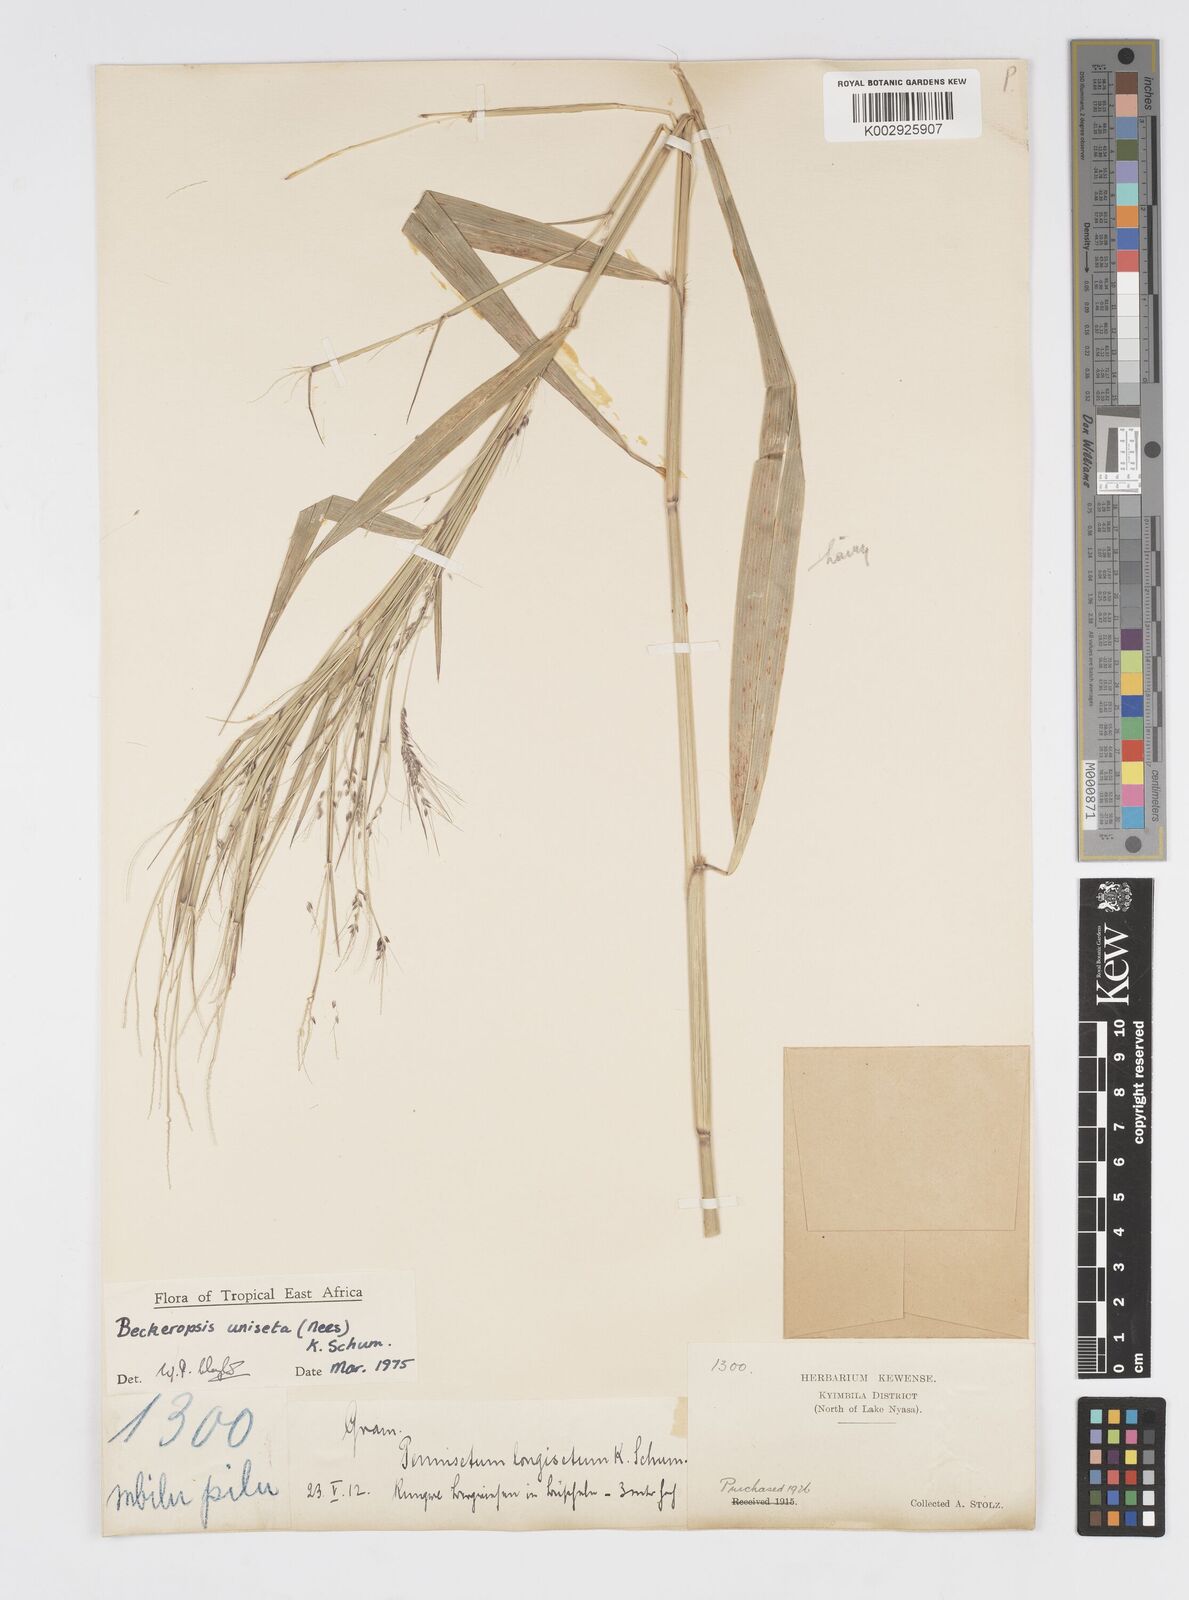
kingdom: Plantae
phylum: Tracheophyta
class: Liliopsida
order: Poales
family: Poaceae
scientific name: Poaceae
